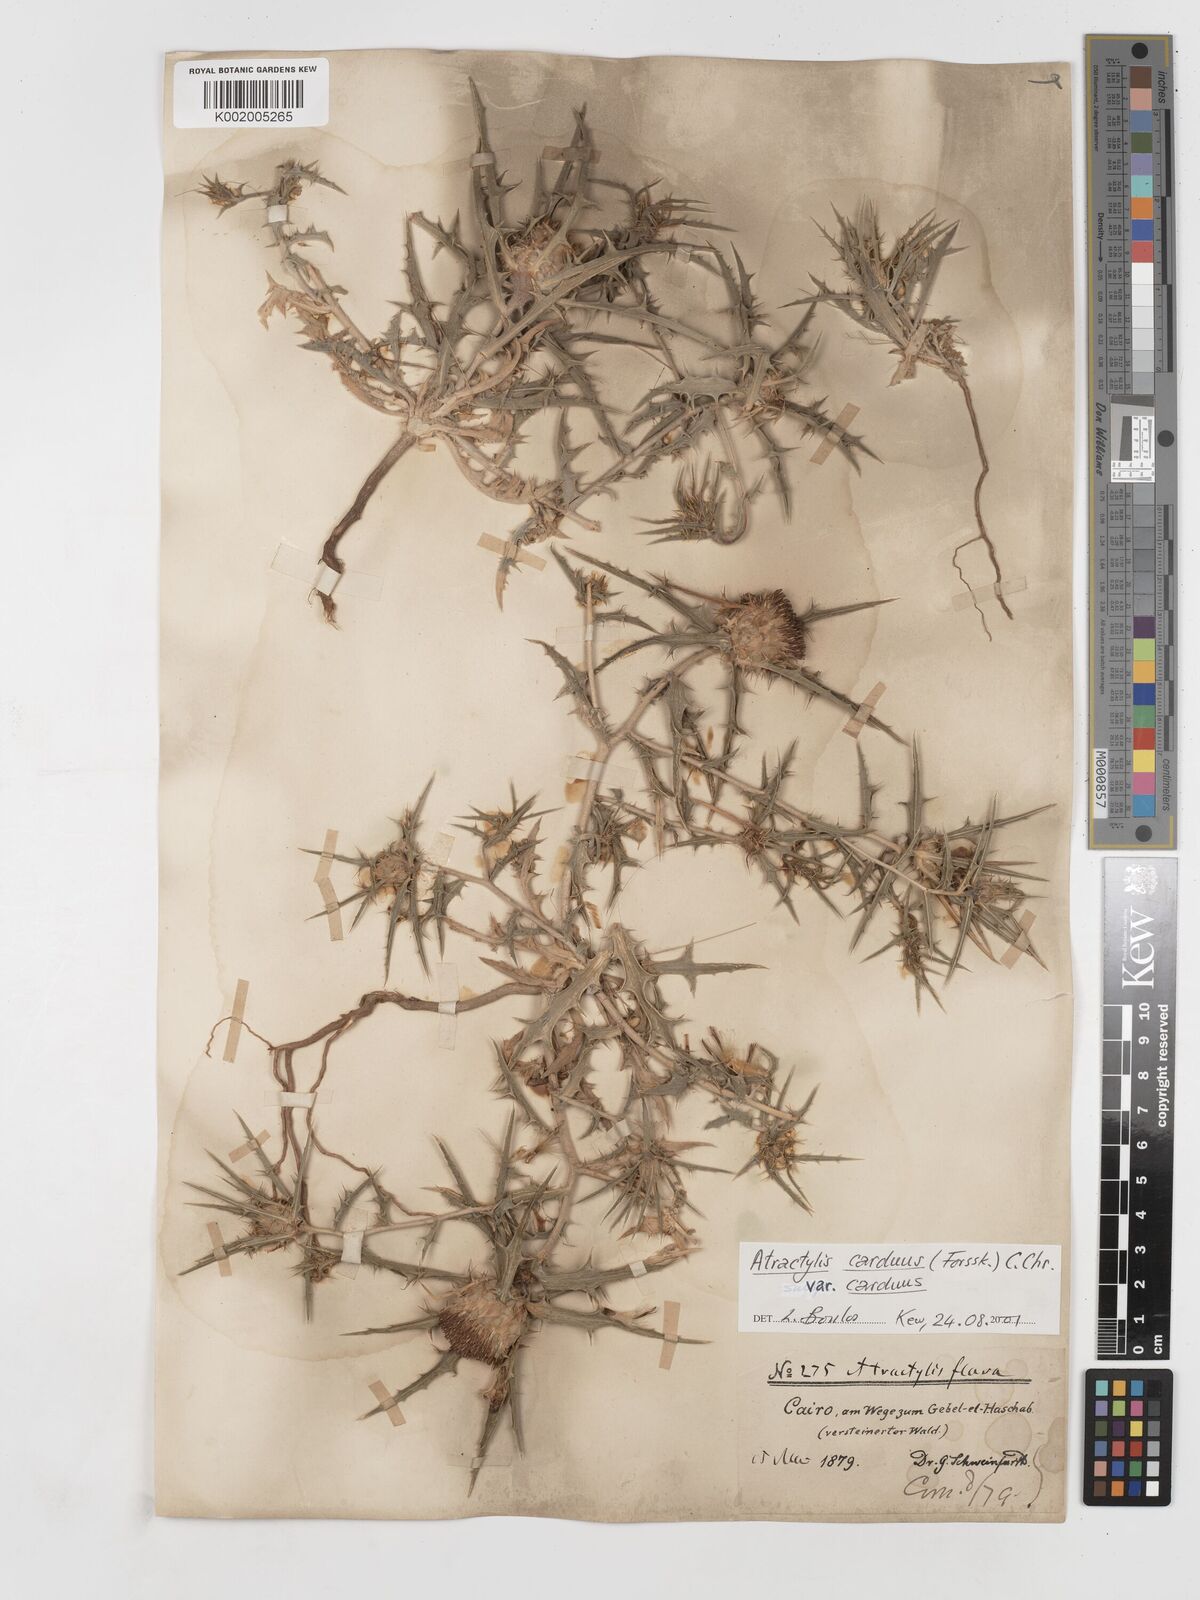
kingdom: Plantae
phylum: Tracheophyta
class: Magnoliopsida
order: Asterales
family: Asteraceae
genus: Atractylis
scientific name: Atractylis carduus
